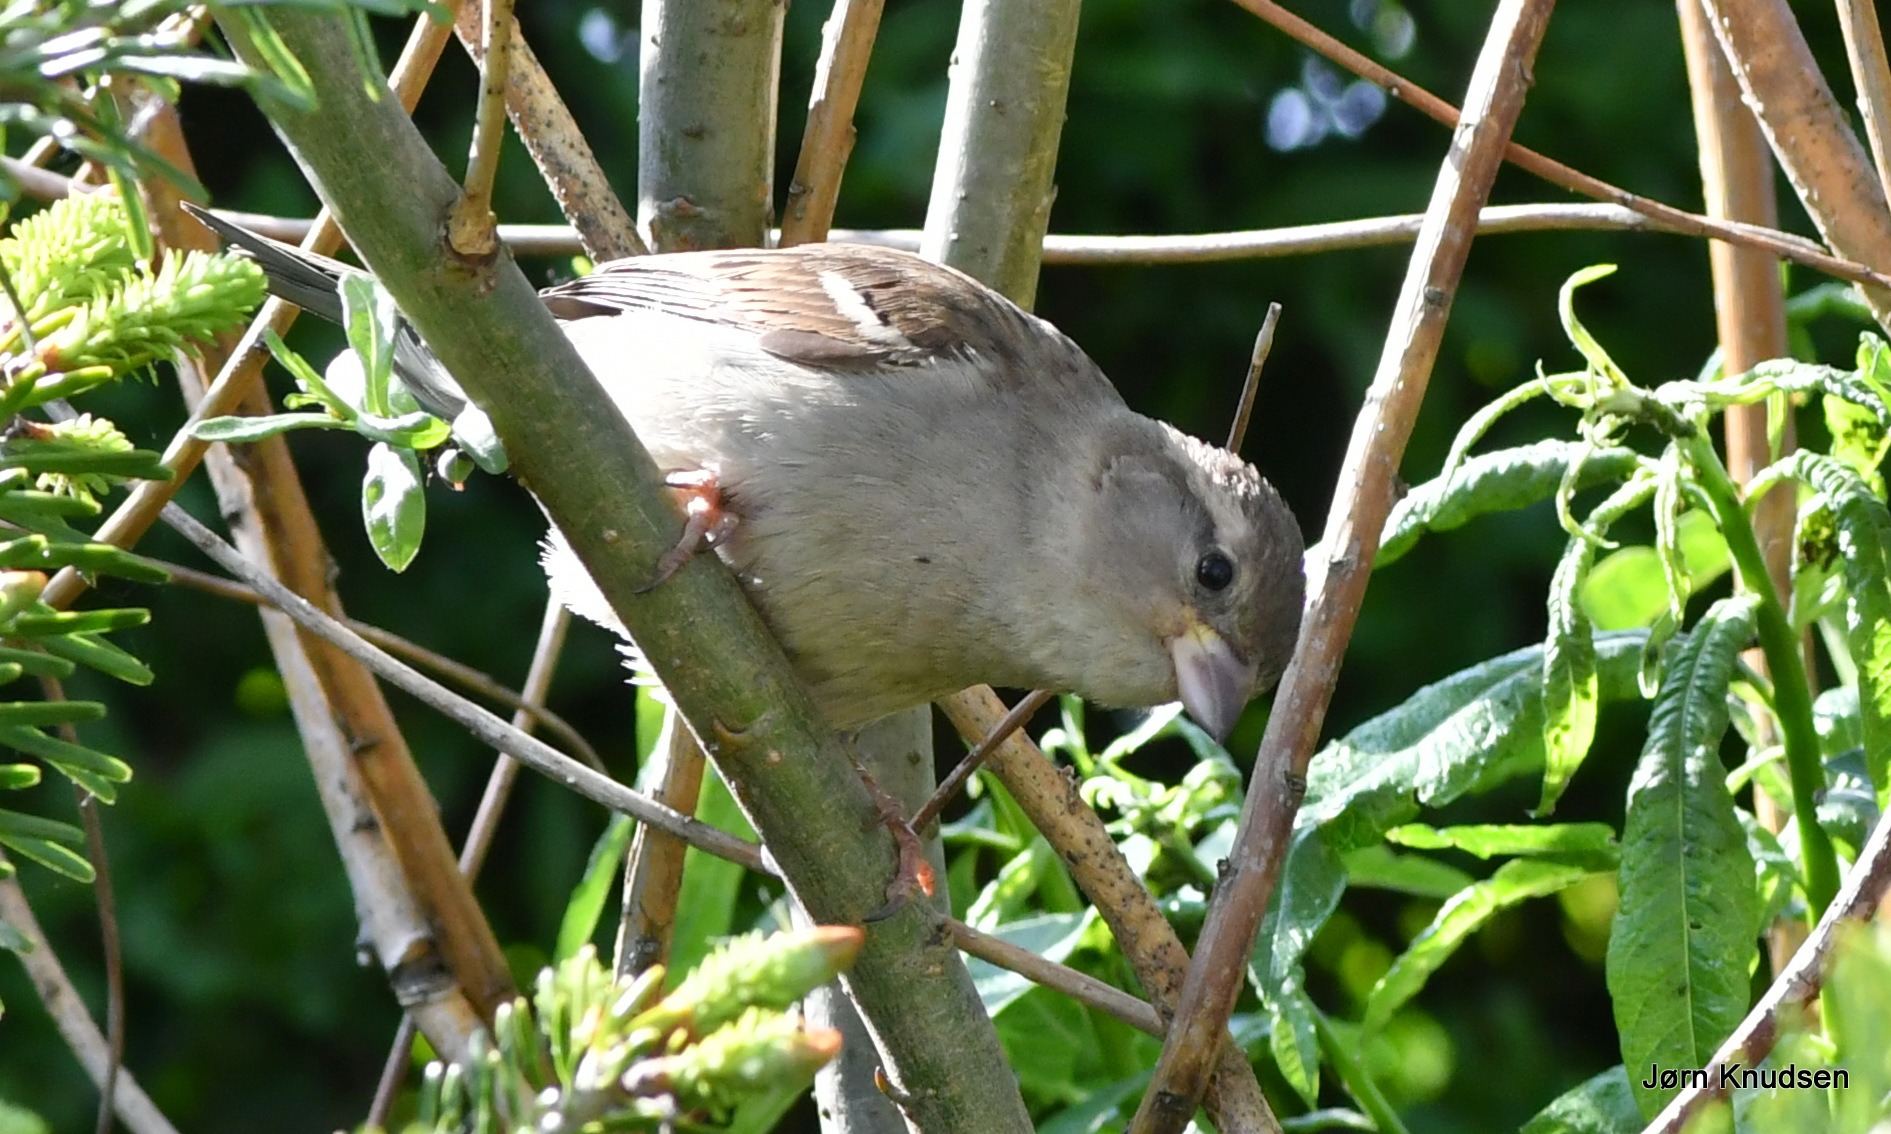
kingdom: Animalia
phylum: Chordata
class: Aves
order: Passeriformes
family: Passeridae
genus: Passer
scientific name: Passer domesticus
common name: Gråspurv
